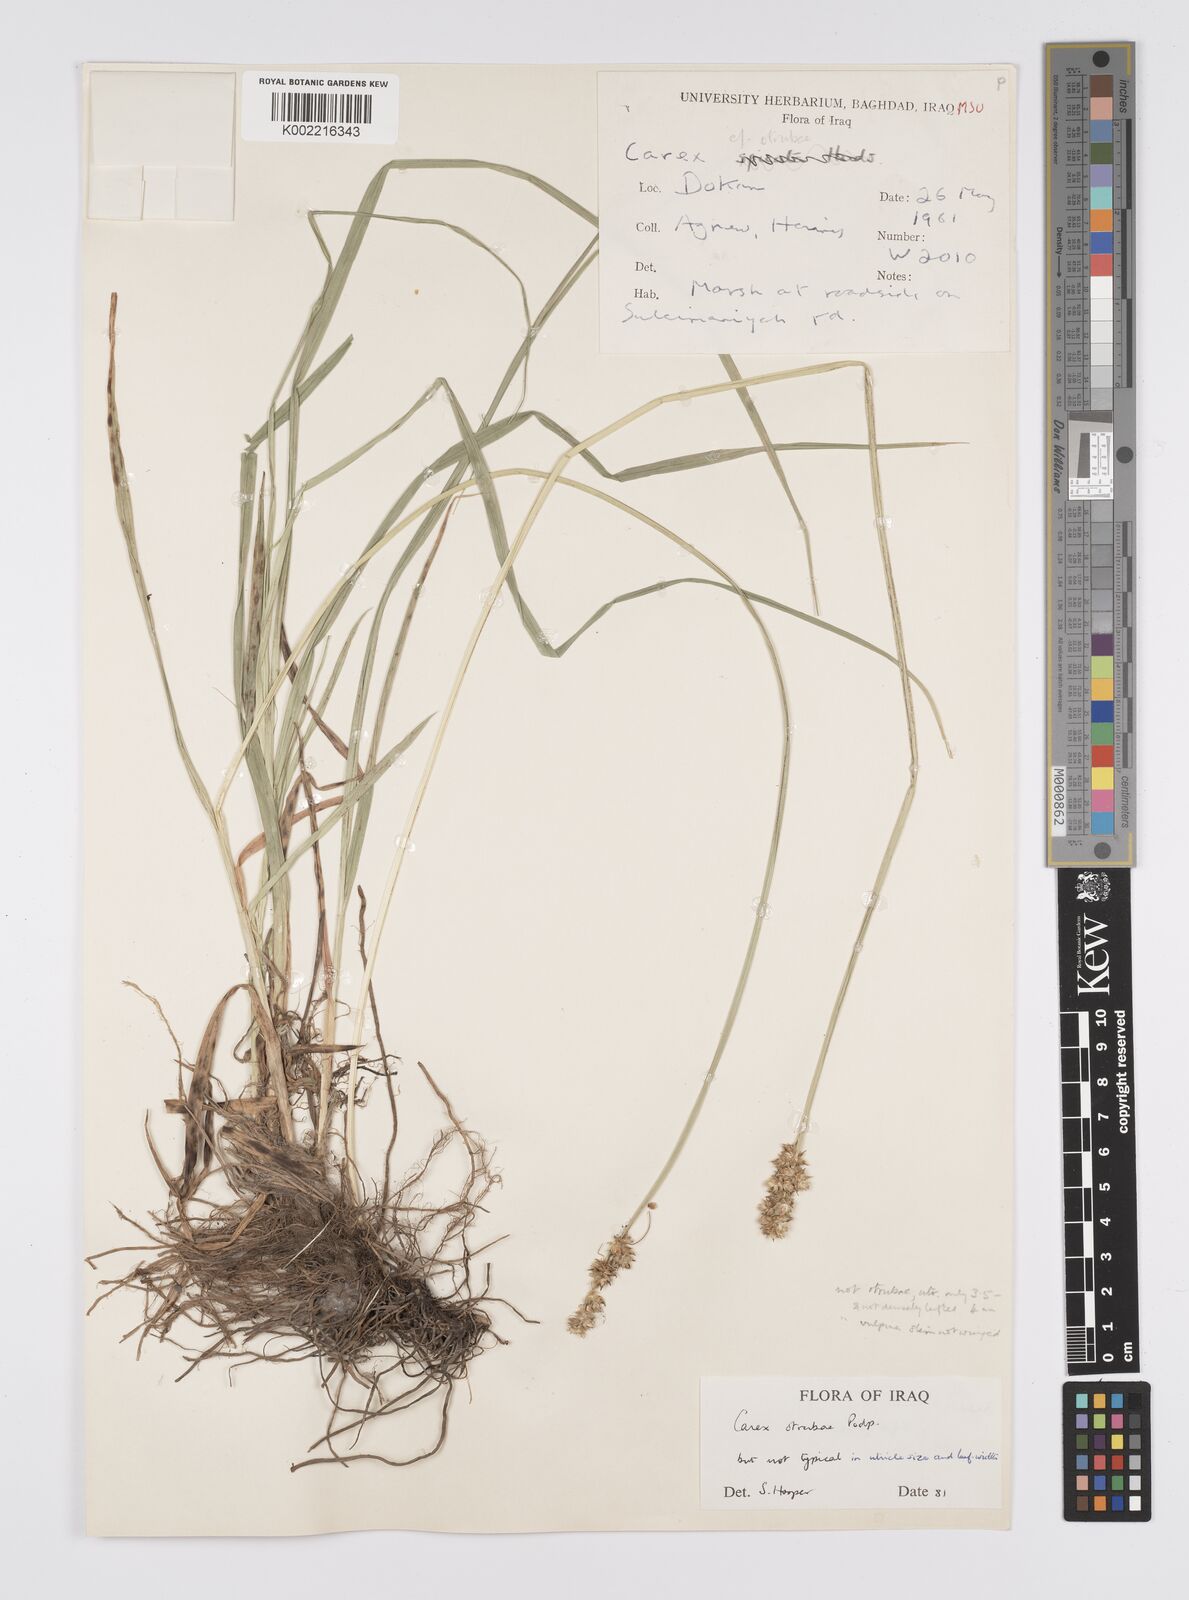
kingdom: Plantae
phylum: Tracheophyta
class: Liliopsida
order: Poales
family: Cyperaceae
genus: Carex
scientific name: Carex otrubae
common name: False fox-sedge
